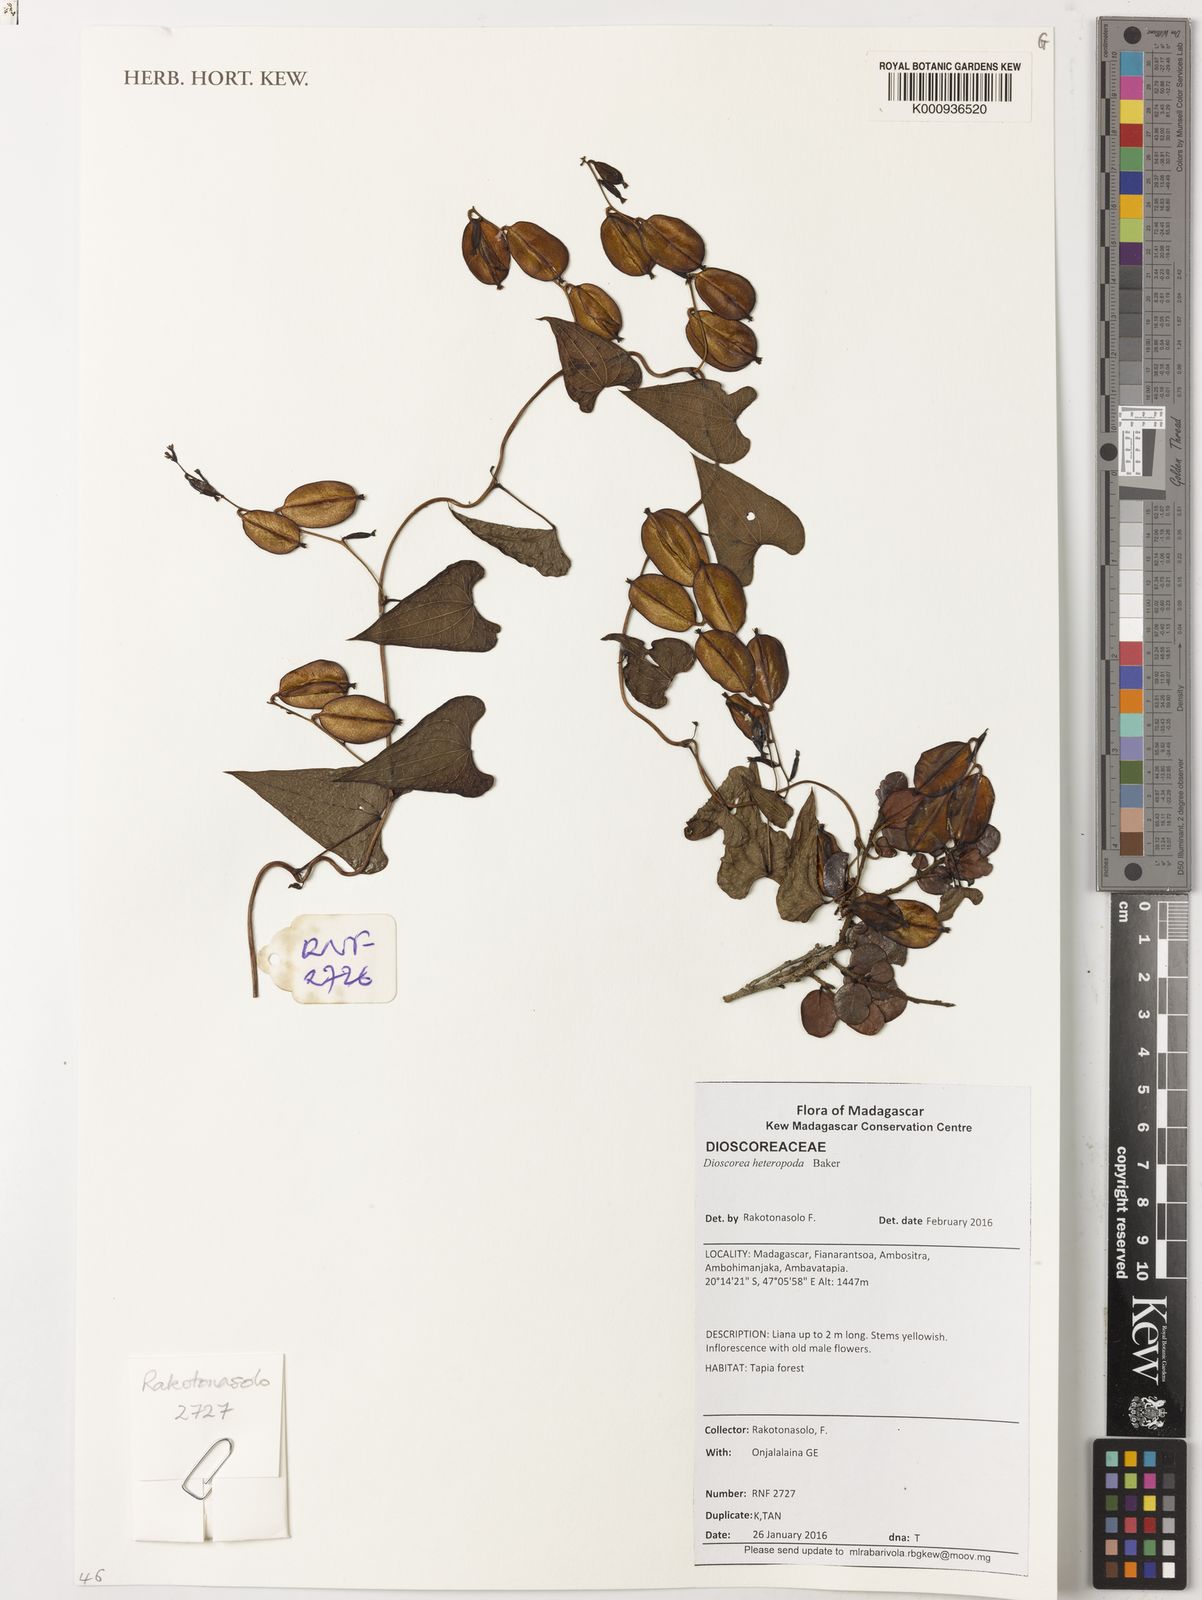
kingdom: Plantae
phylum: Tracheophyta
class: Liliopsida
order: Dioscoreales
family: Dioscoreaceae
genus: Dioscorea
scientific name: Dioscorea heteropoda
